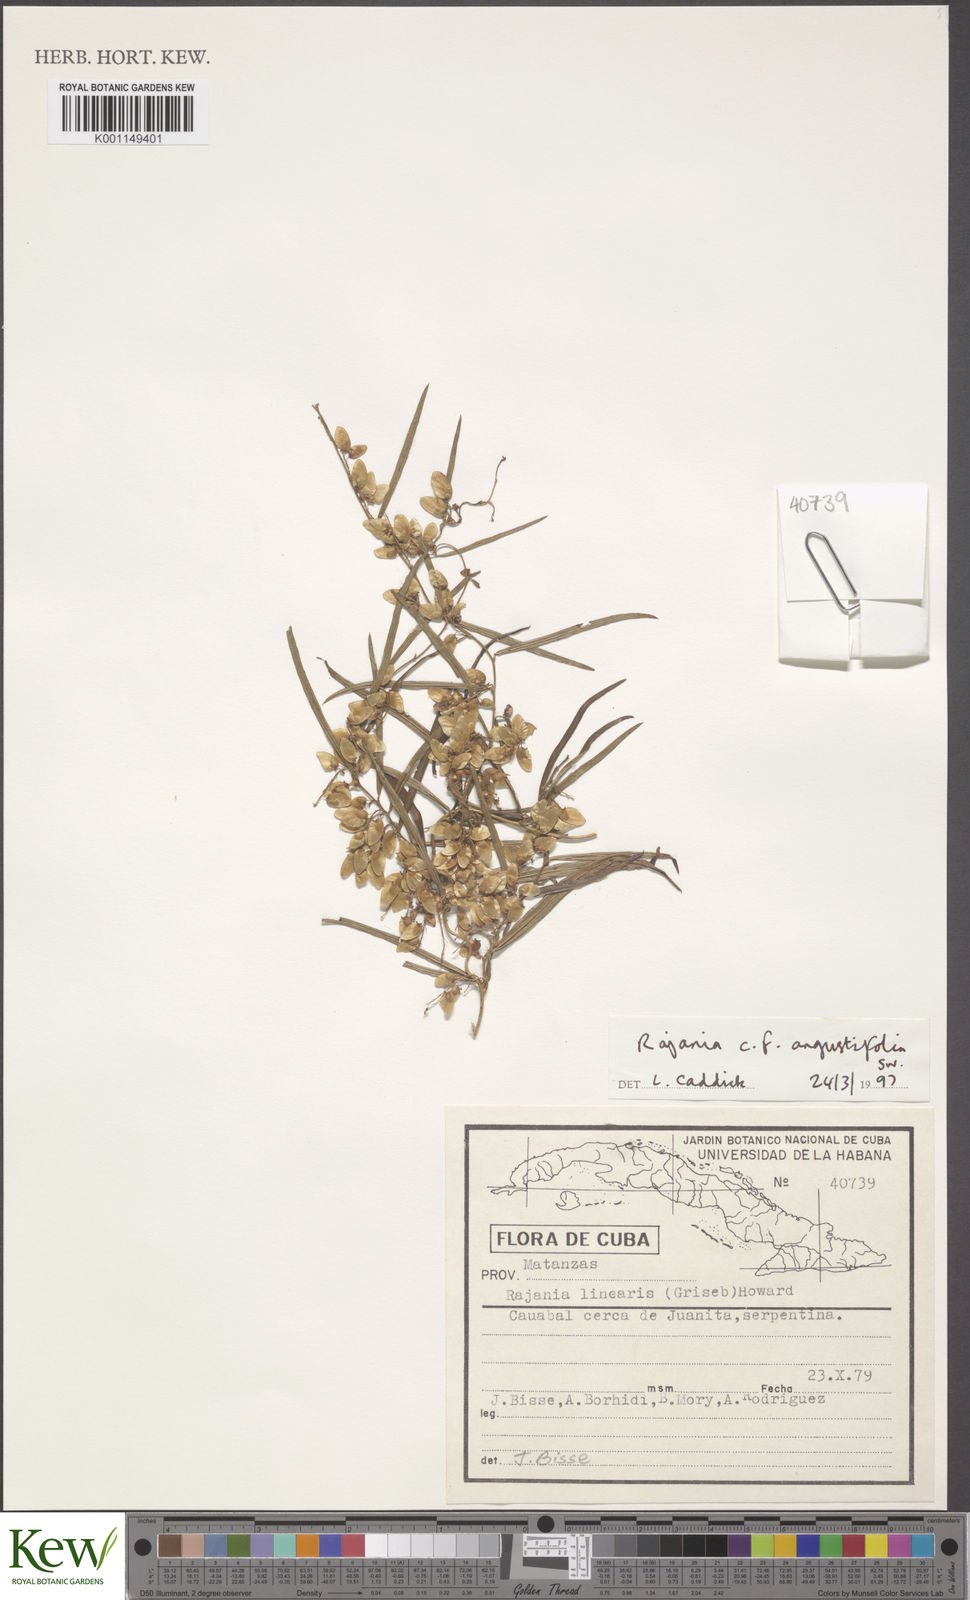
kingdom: Plantae
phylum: Tracheophyta
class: Liliopsida
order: Dioscoreales
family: Dioscoreaceae
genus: Dioscorea
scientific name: Dioscorea
